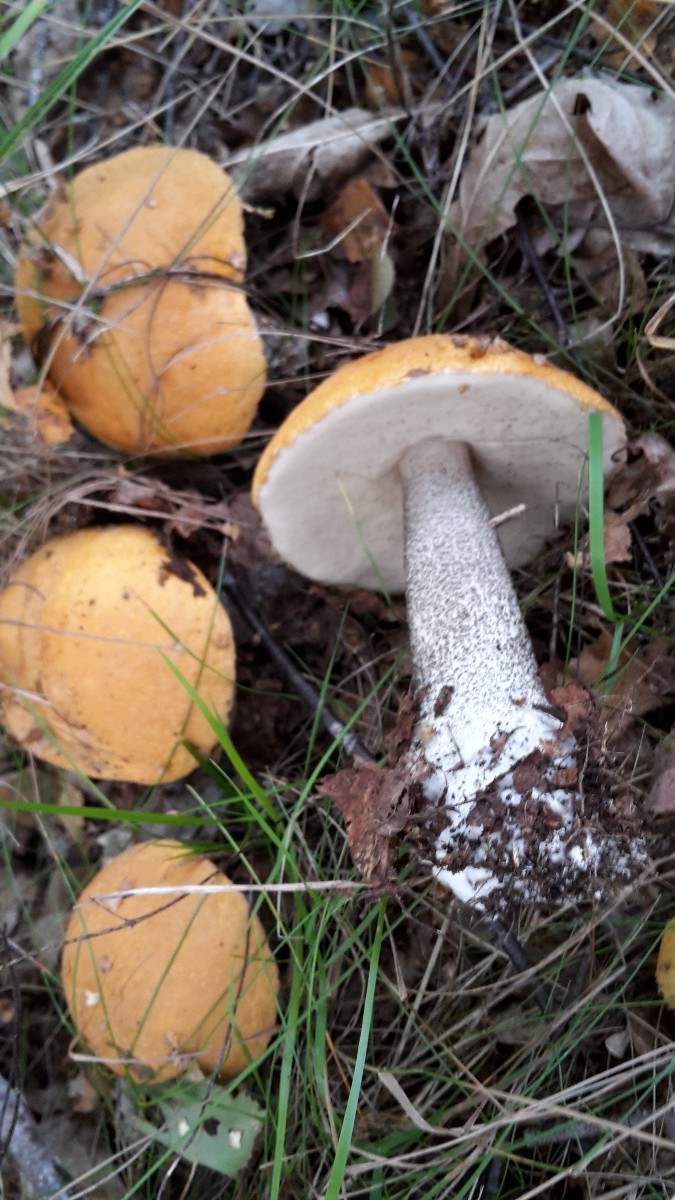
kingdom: Fungi
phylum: Basidiomycota
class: Agaricomycetes
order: Boletales
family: Boletaceae
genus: Leccinum
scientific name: Leccinum versipelle
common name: orange skælrørhat
